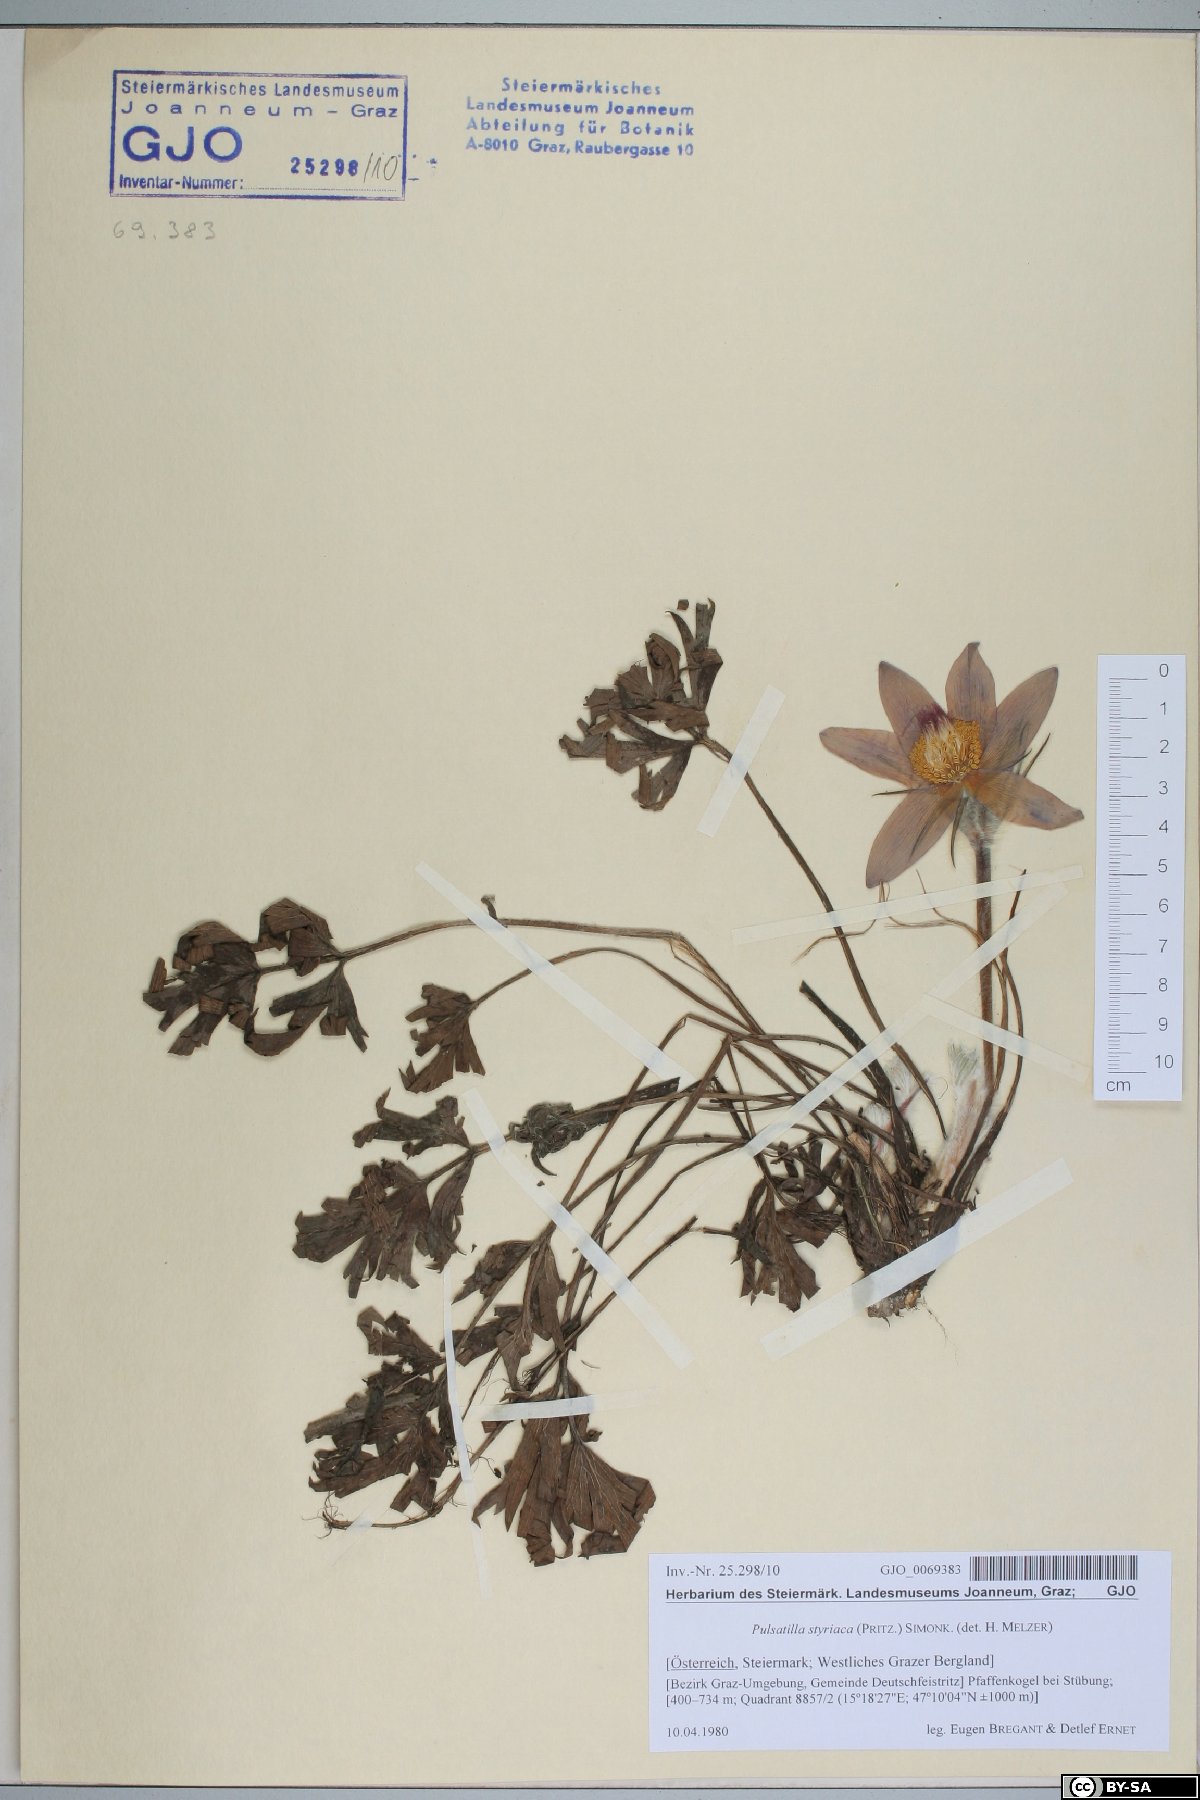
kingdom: Plantae
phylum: Tracheophyta
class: Magnoliopsida
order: Ranunculales
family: Ranunculaceae
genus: Pulsatilla
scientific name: Pulsatilla halleri
